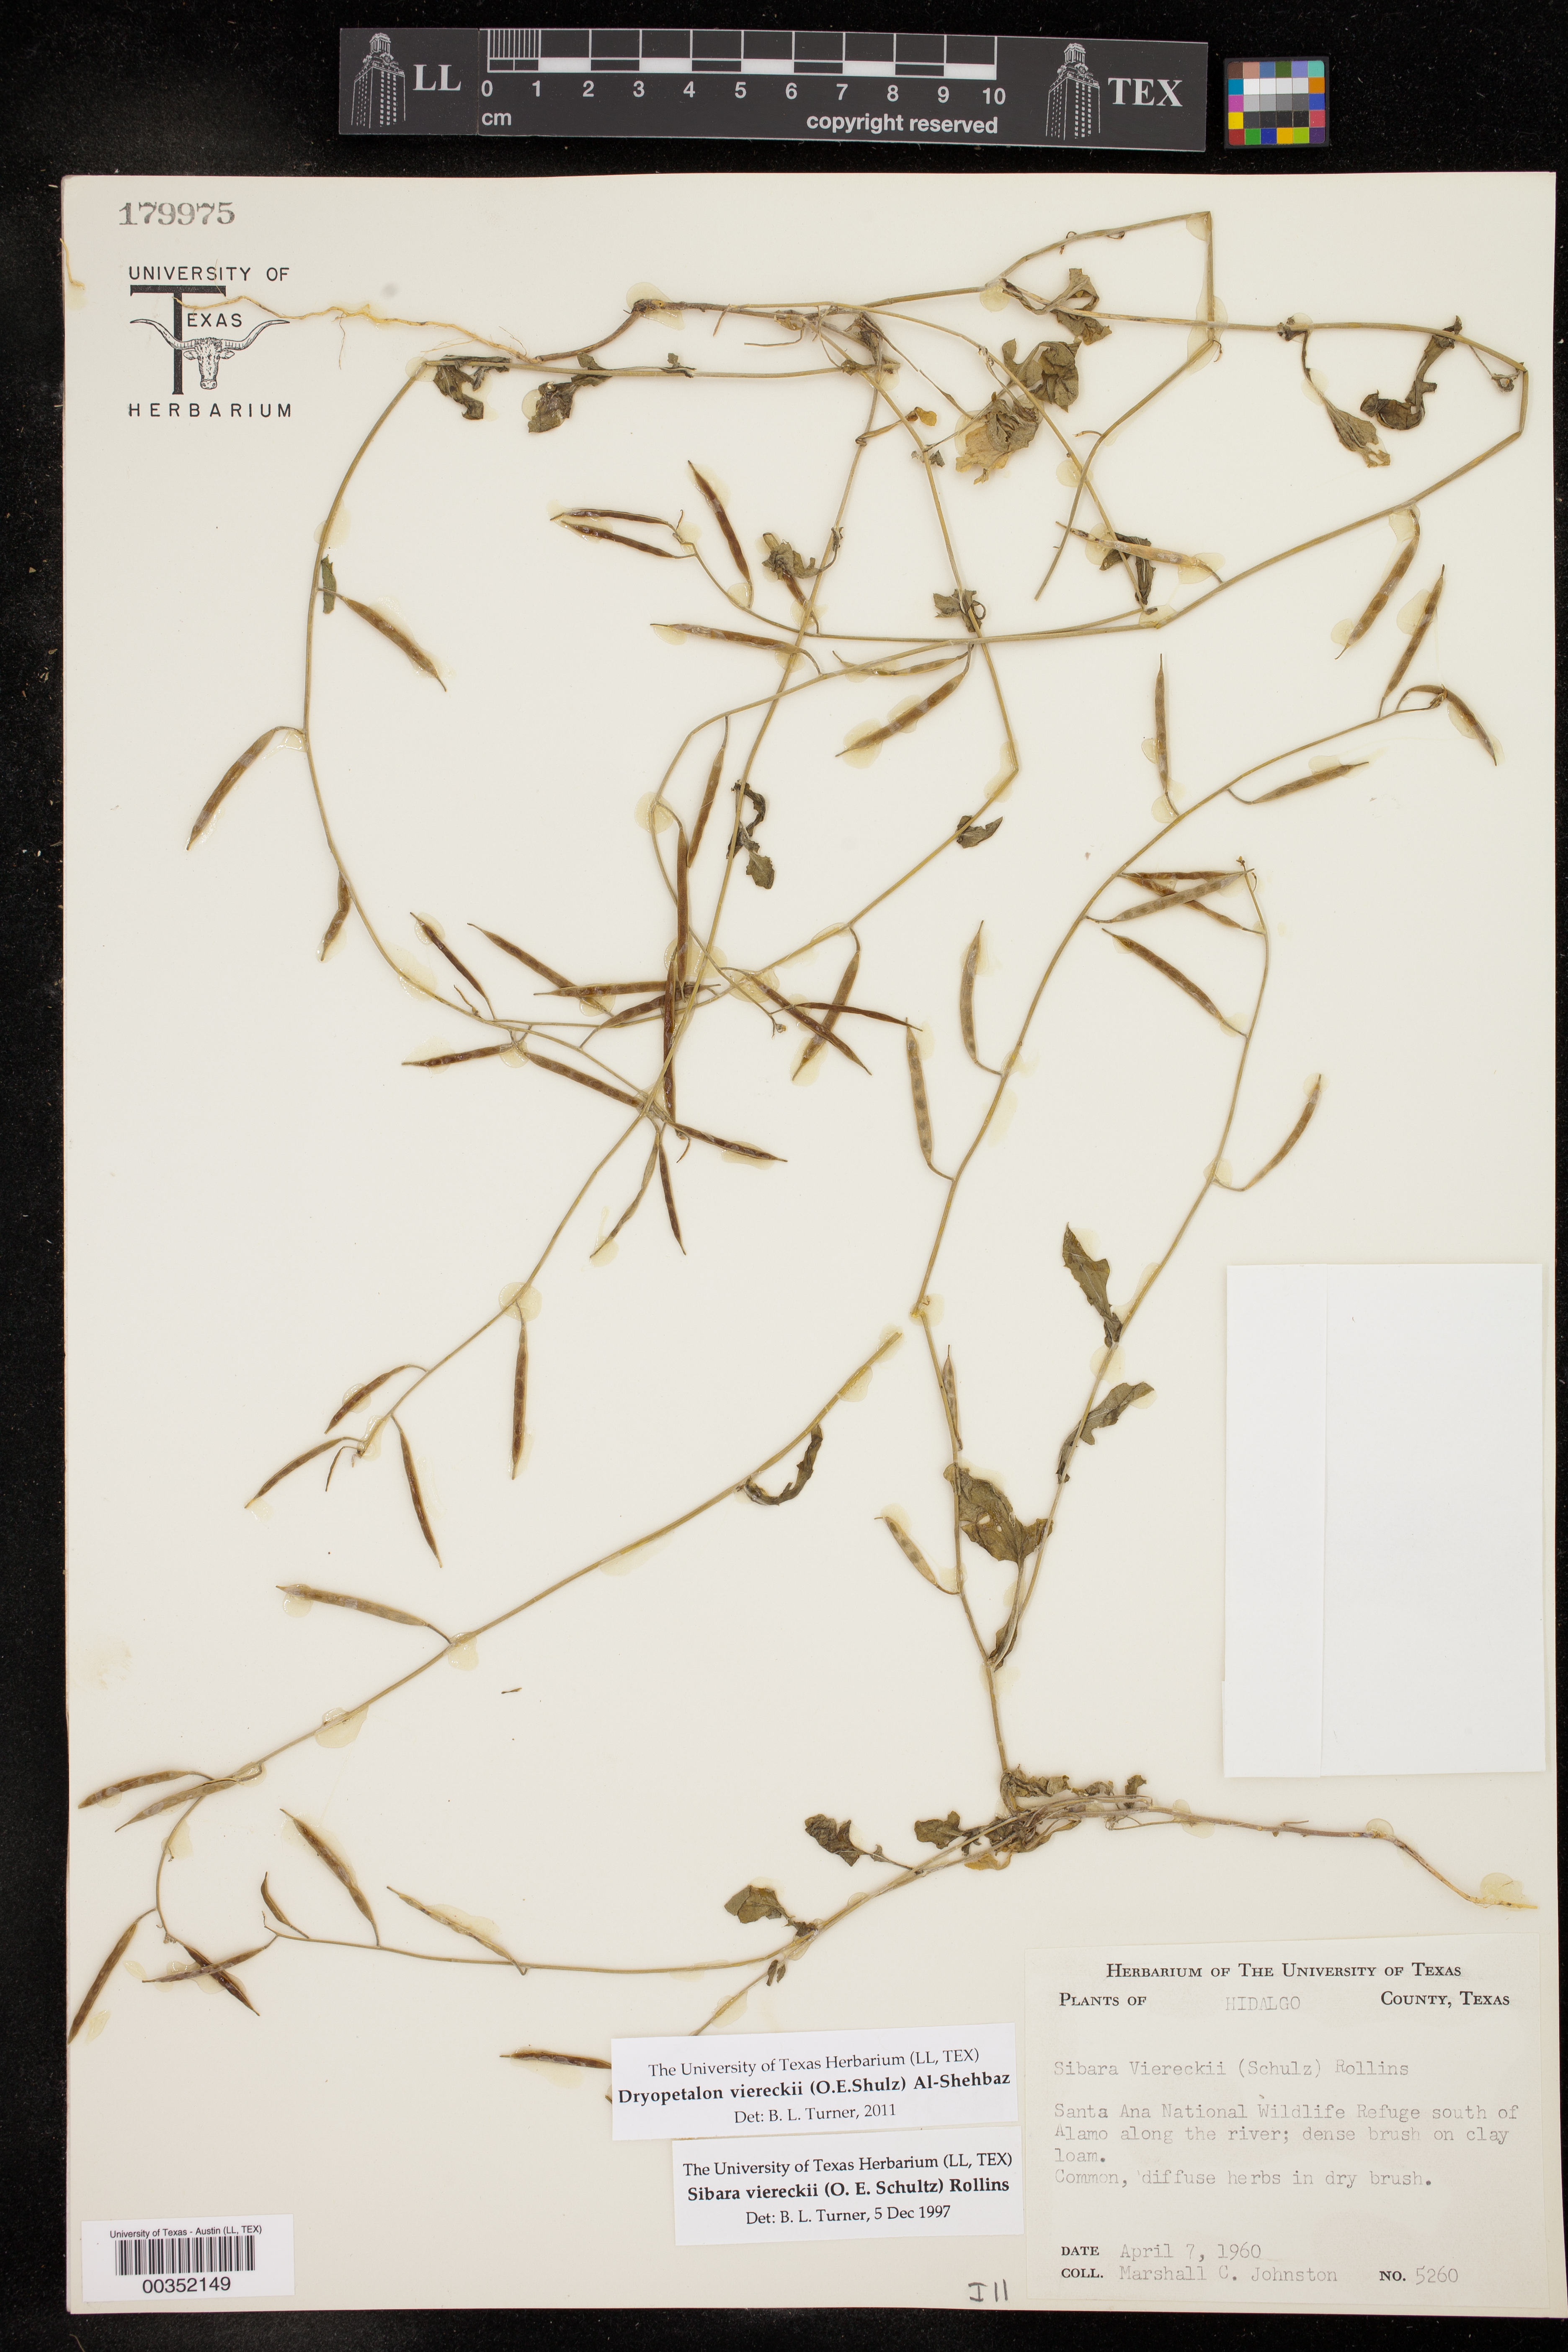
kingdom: Plantae
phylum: Tracheophyta
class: Magnoliopsida
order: Brassicales
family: Brassicaceae
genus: Phravenia
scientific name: Phravenia viereckii
